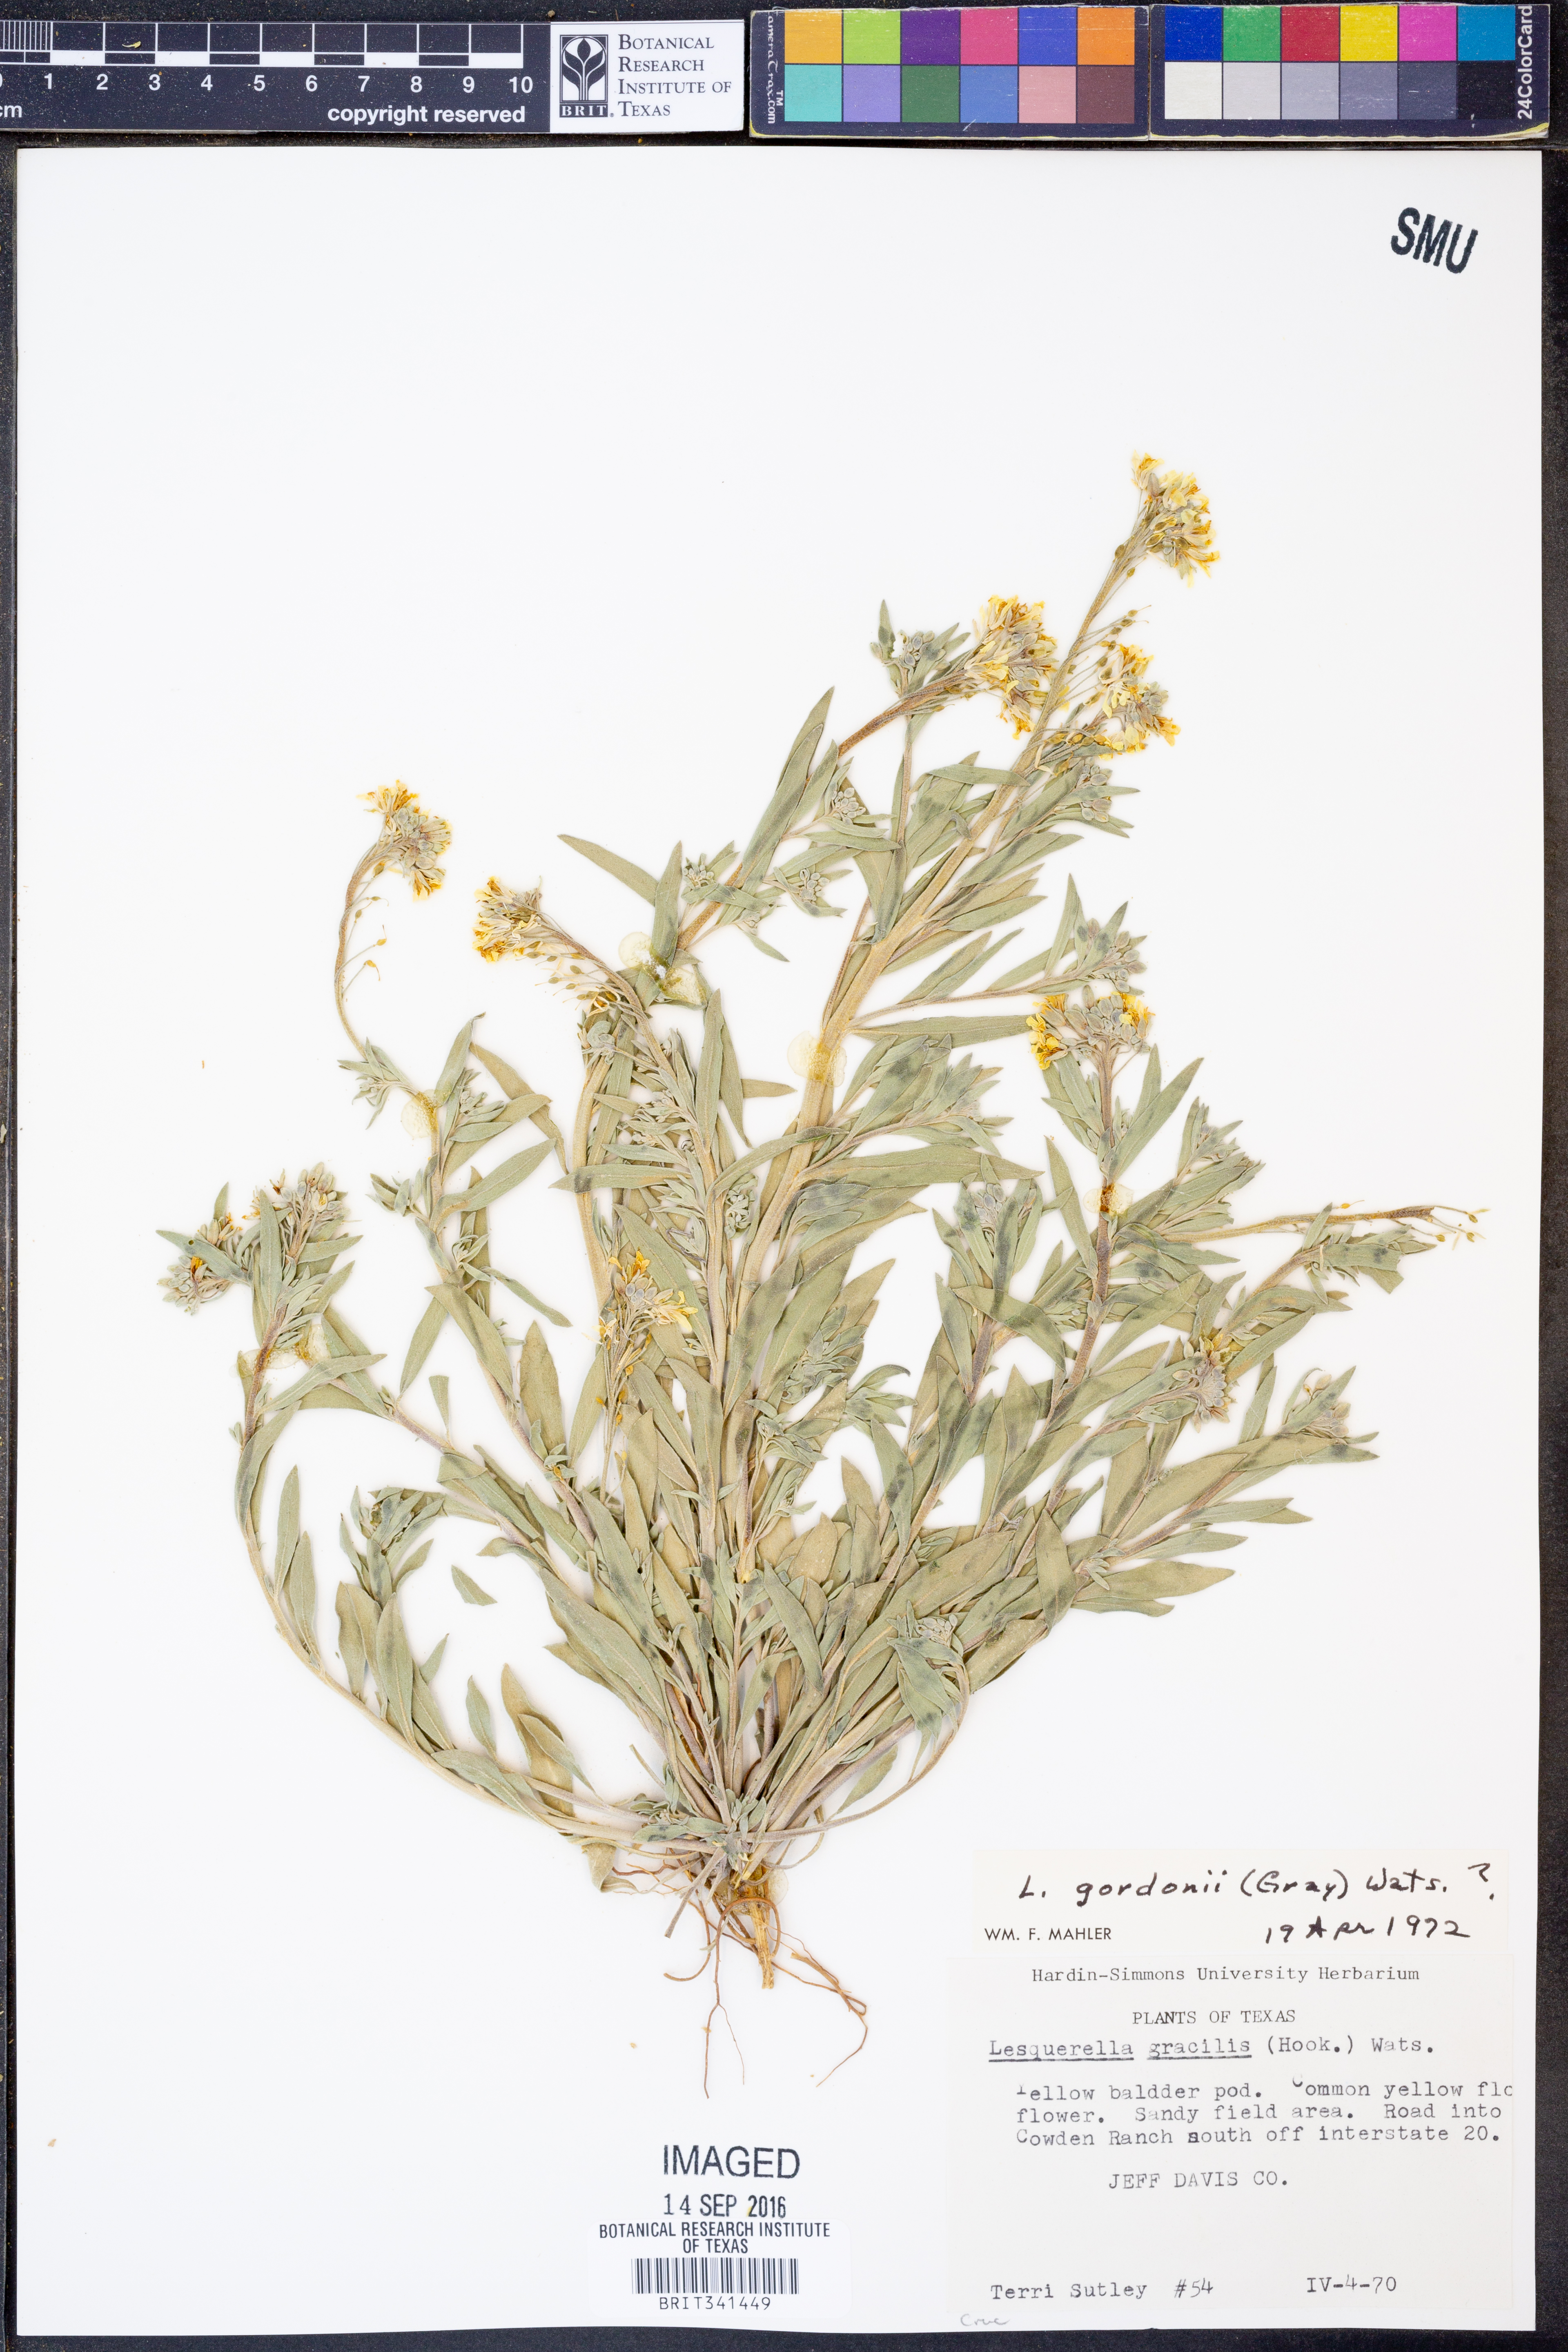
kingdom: Plantae
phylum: Tracheophyta
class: Magnoliopsida
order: Brassicales
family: Brassicaceae
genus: Physaria
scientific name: Physaria gordonii
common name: Gordon's bladderpod
